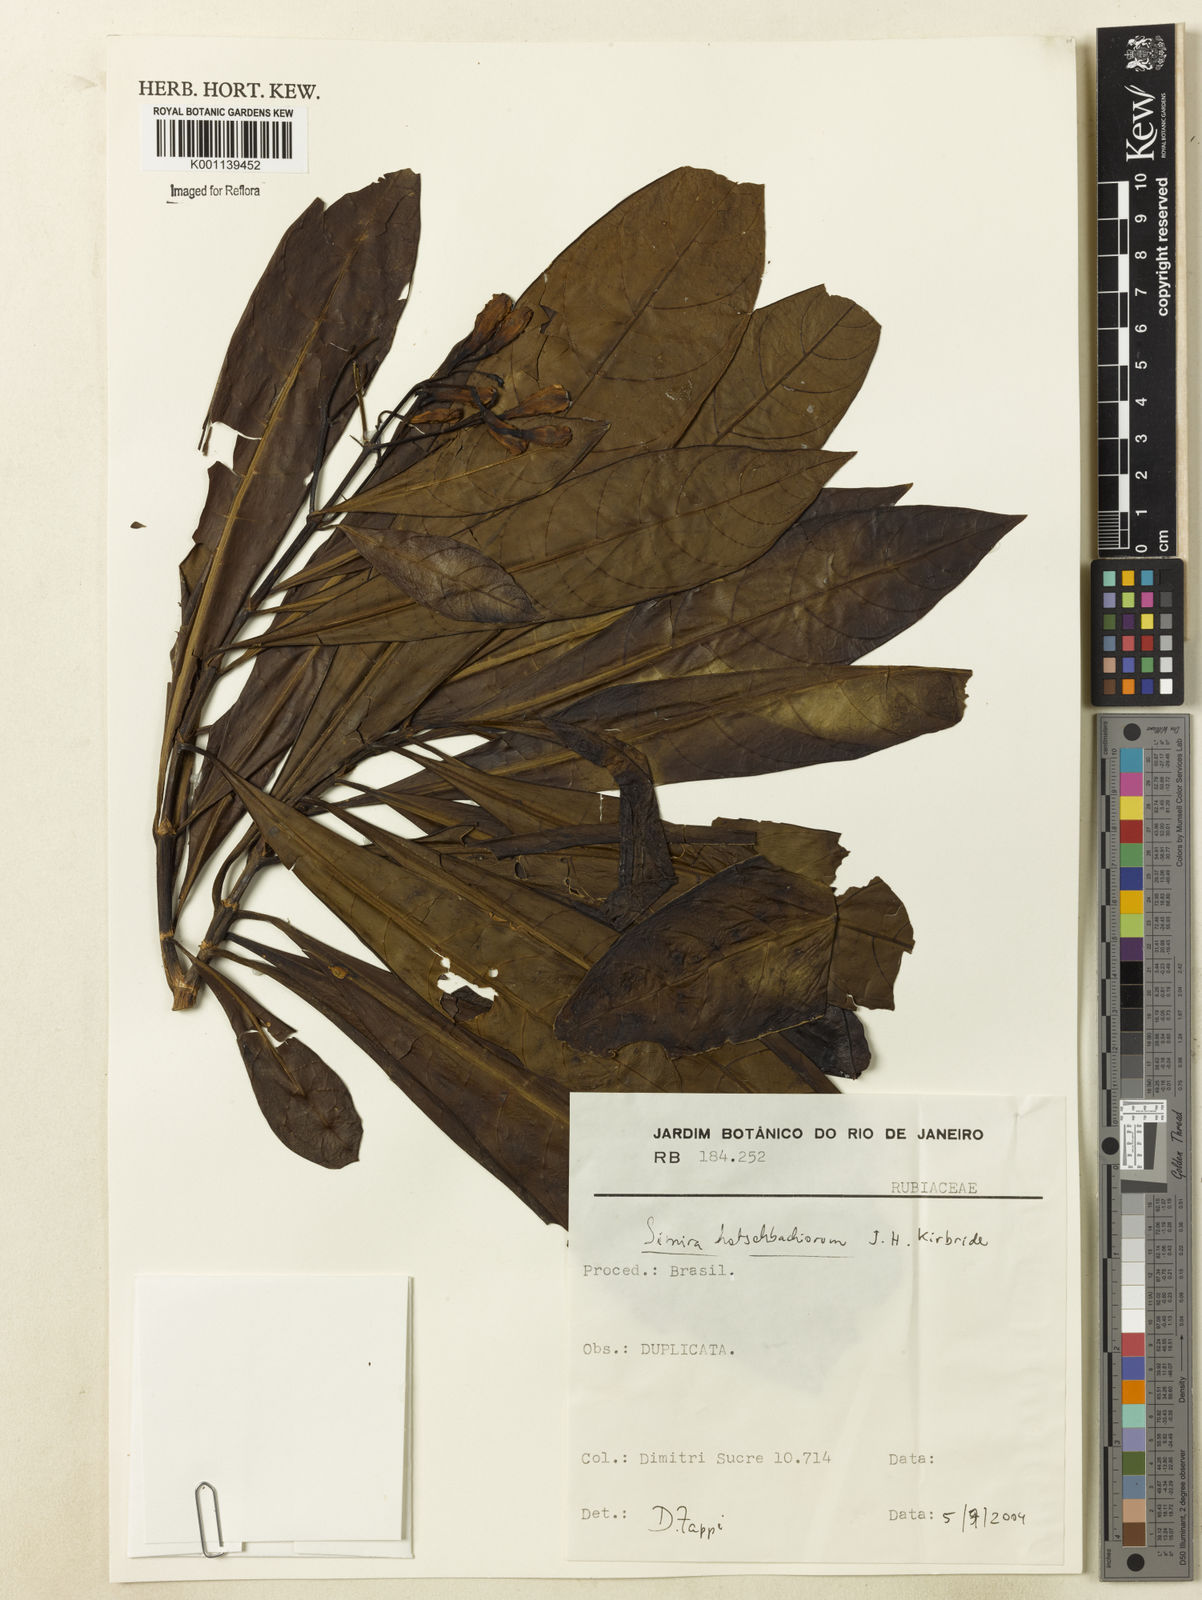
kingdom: Plantae
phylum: Tracheophyta
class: Magnoliopsida
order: Gentianales
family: Rubiaceae
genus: Simira
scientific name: Simira hatschbachiorum
